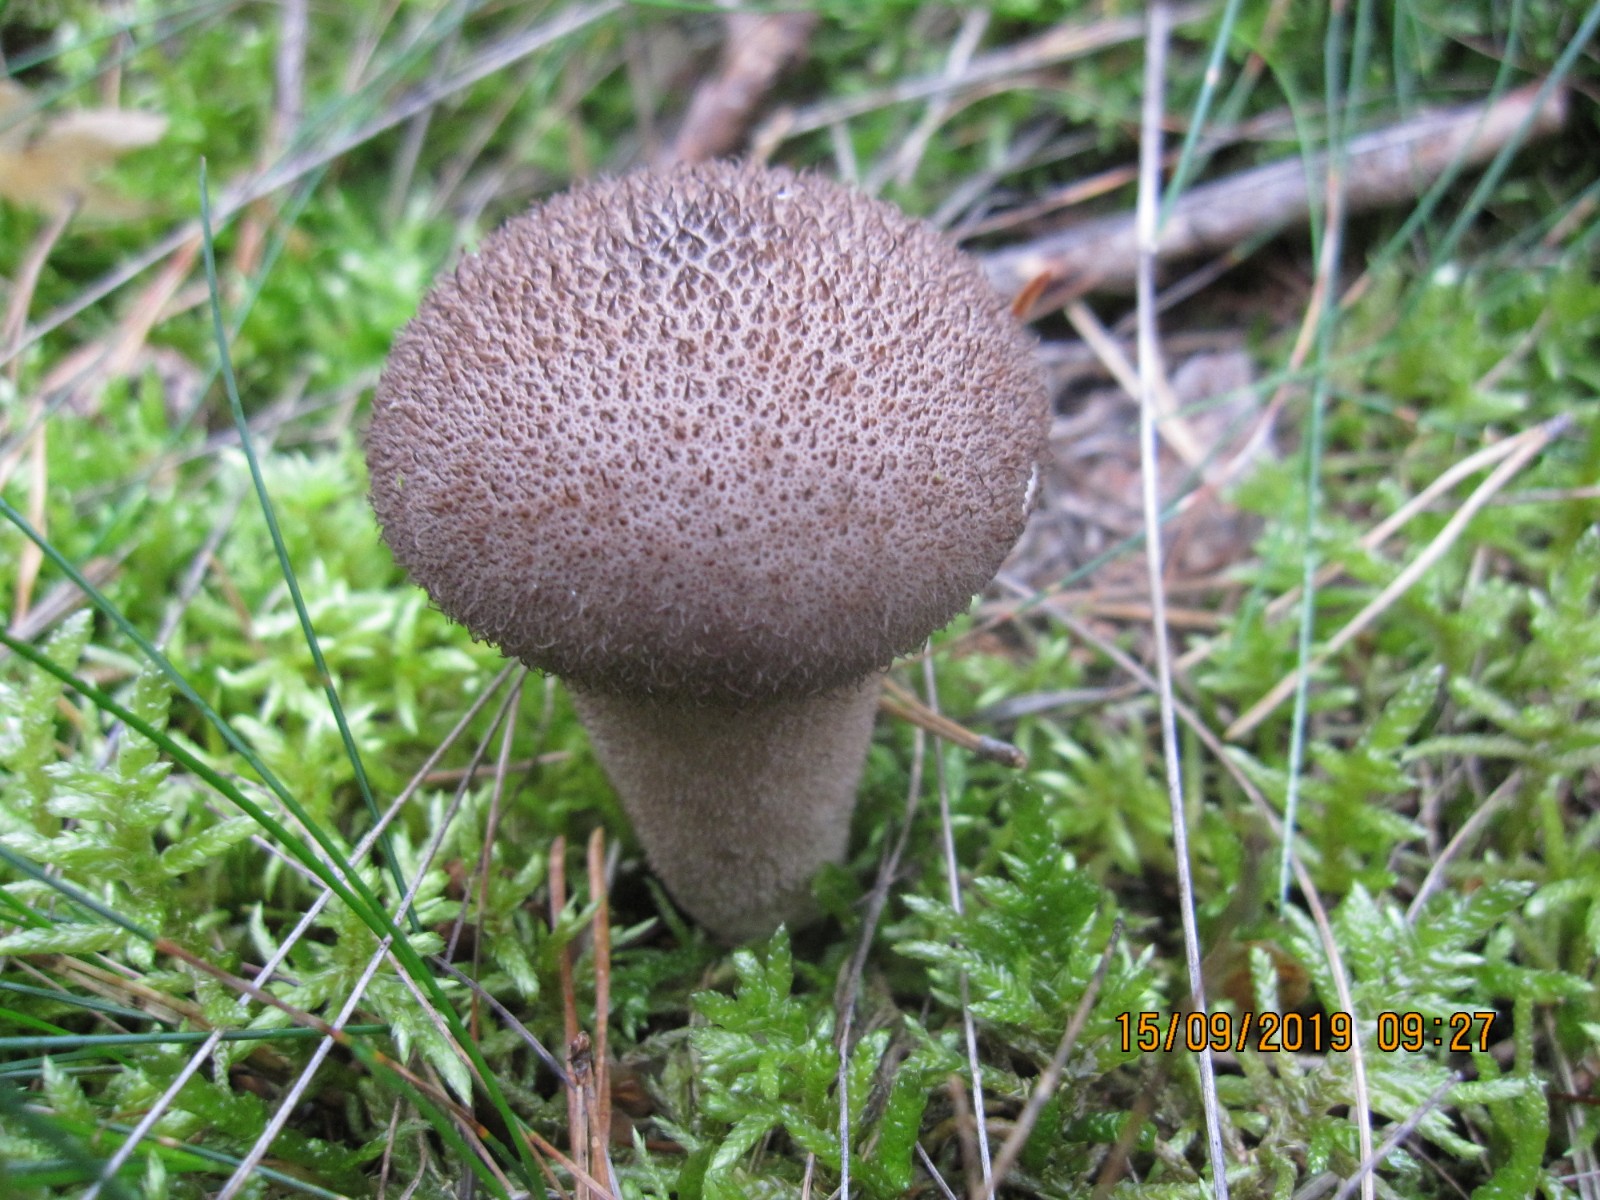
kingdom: Fungi
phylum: Basidiomycota
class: Agaricomycetes
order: Agaricales
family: Lycoperdaceae
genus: Lycoperdon
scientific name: Lycoperdon nigrescens
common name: sortagtig støvbold
